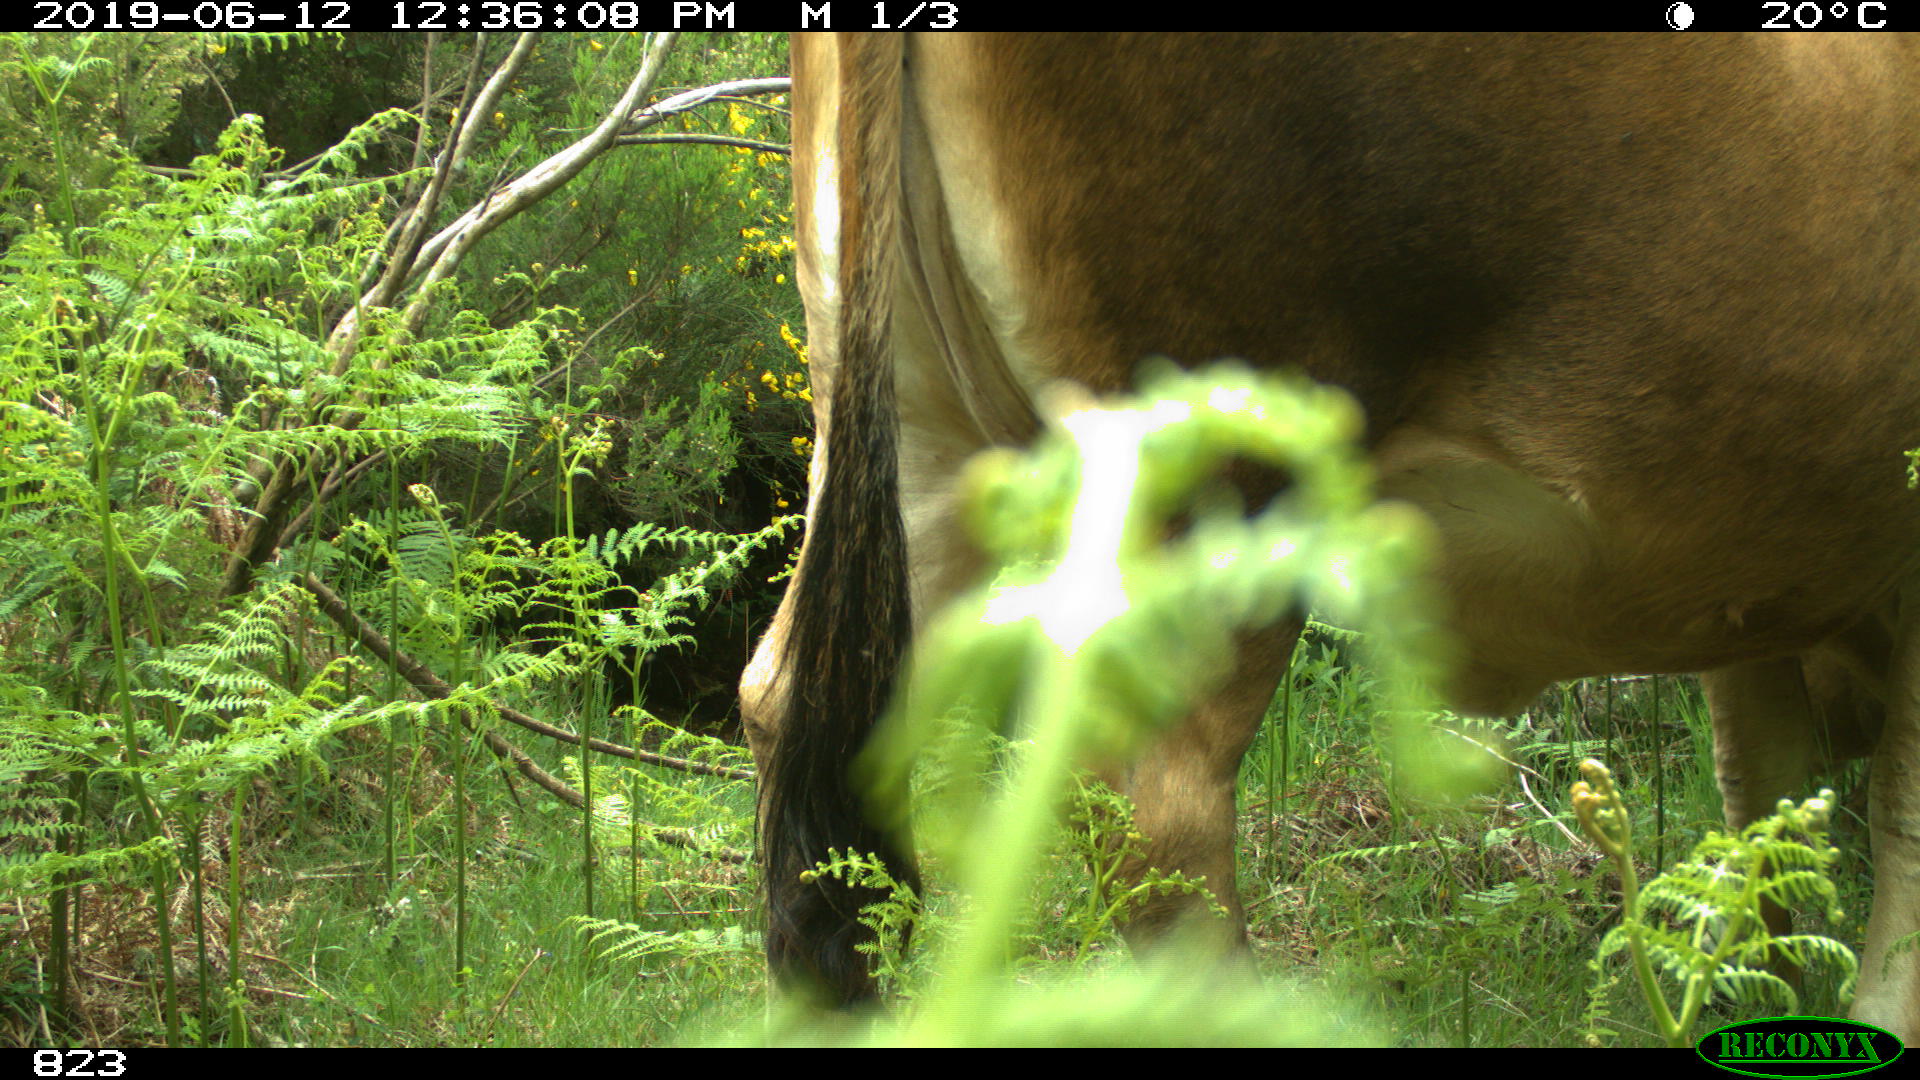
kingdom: Animalia
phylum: Chordata
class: Mammalia
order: Artiodactyla
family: Bovidae
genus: Bos
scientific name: Bos taurus
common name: Domesticated cattle
